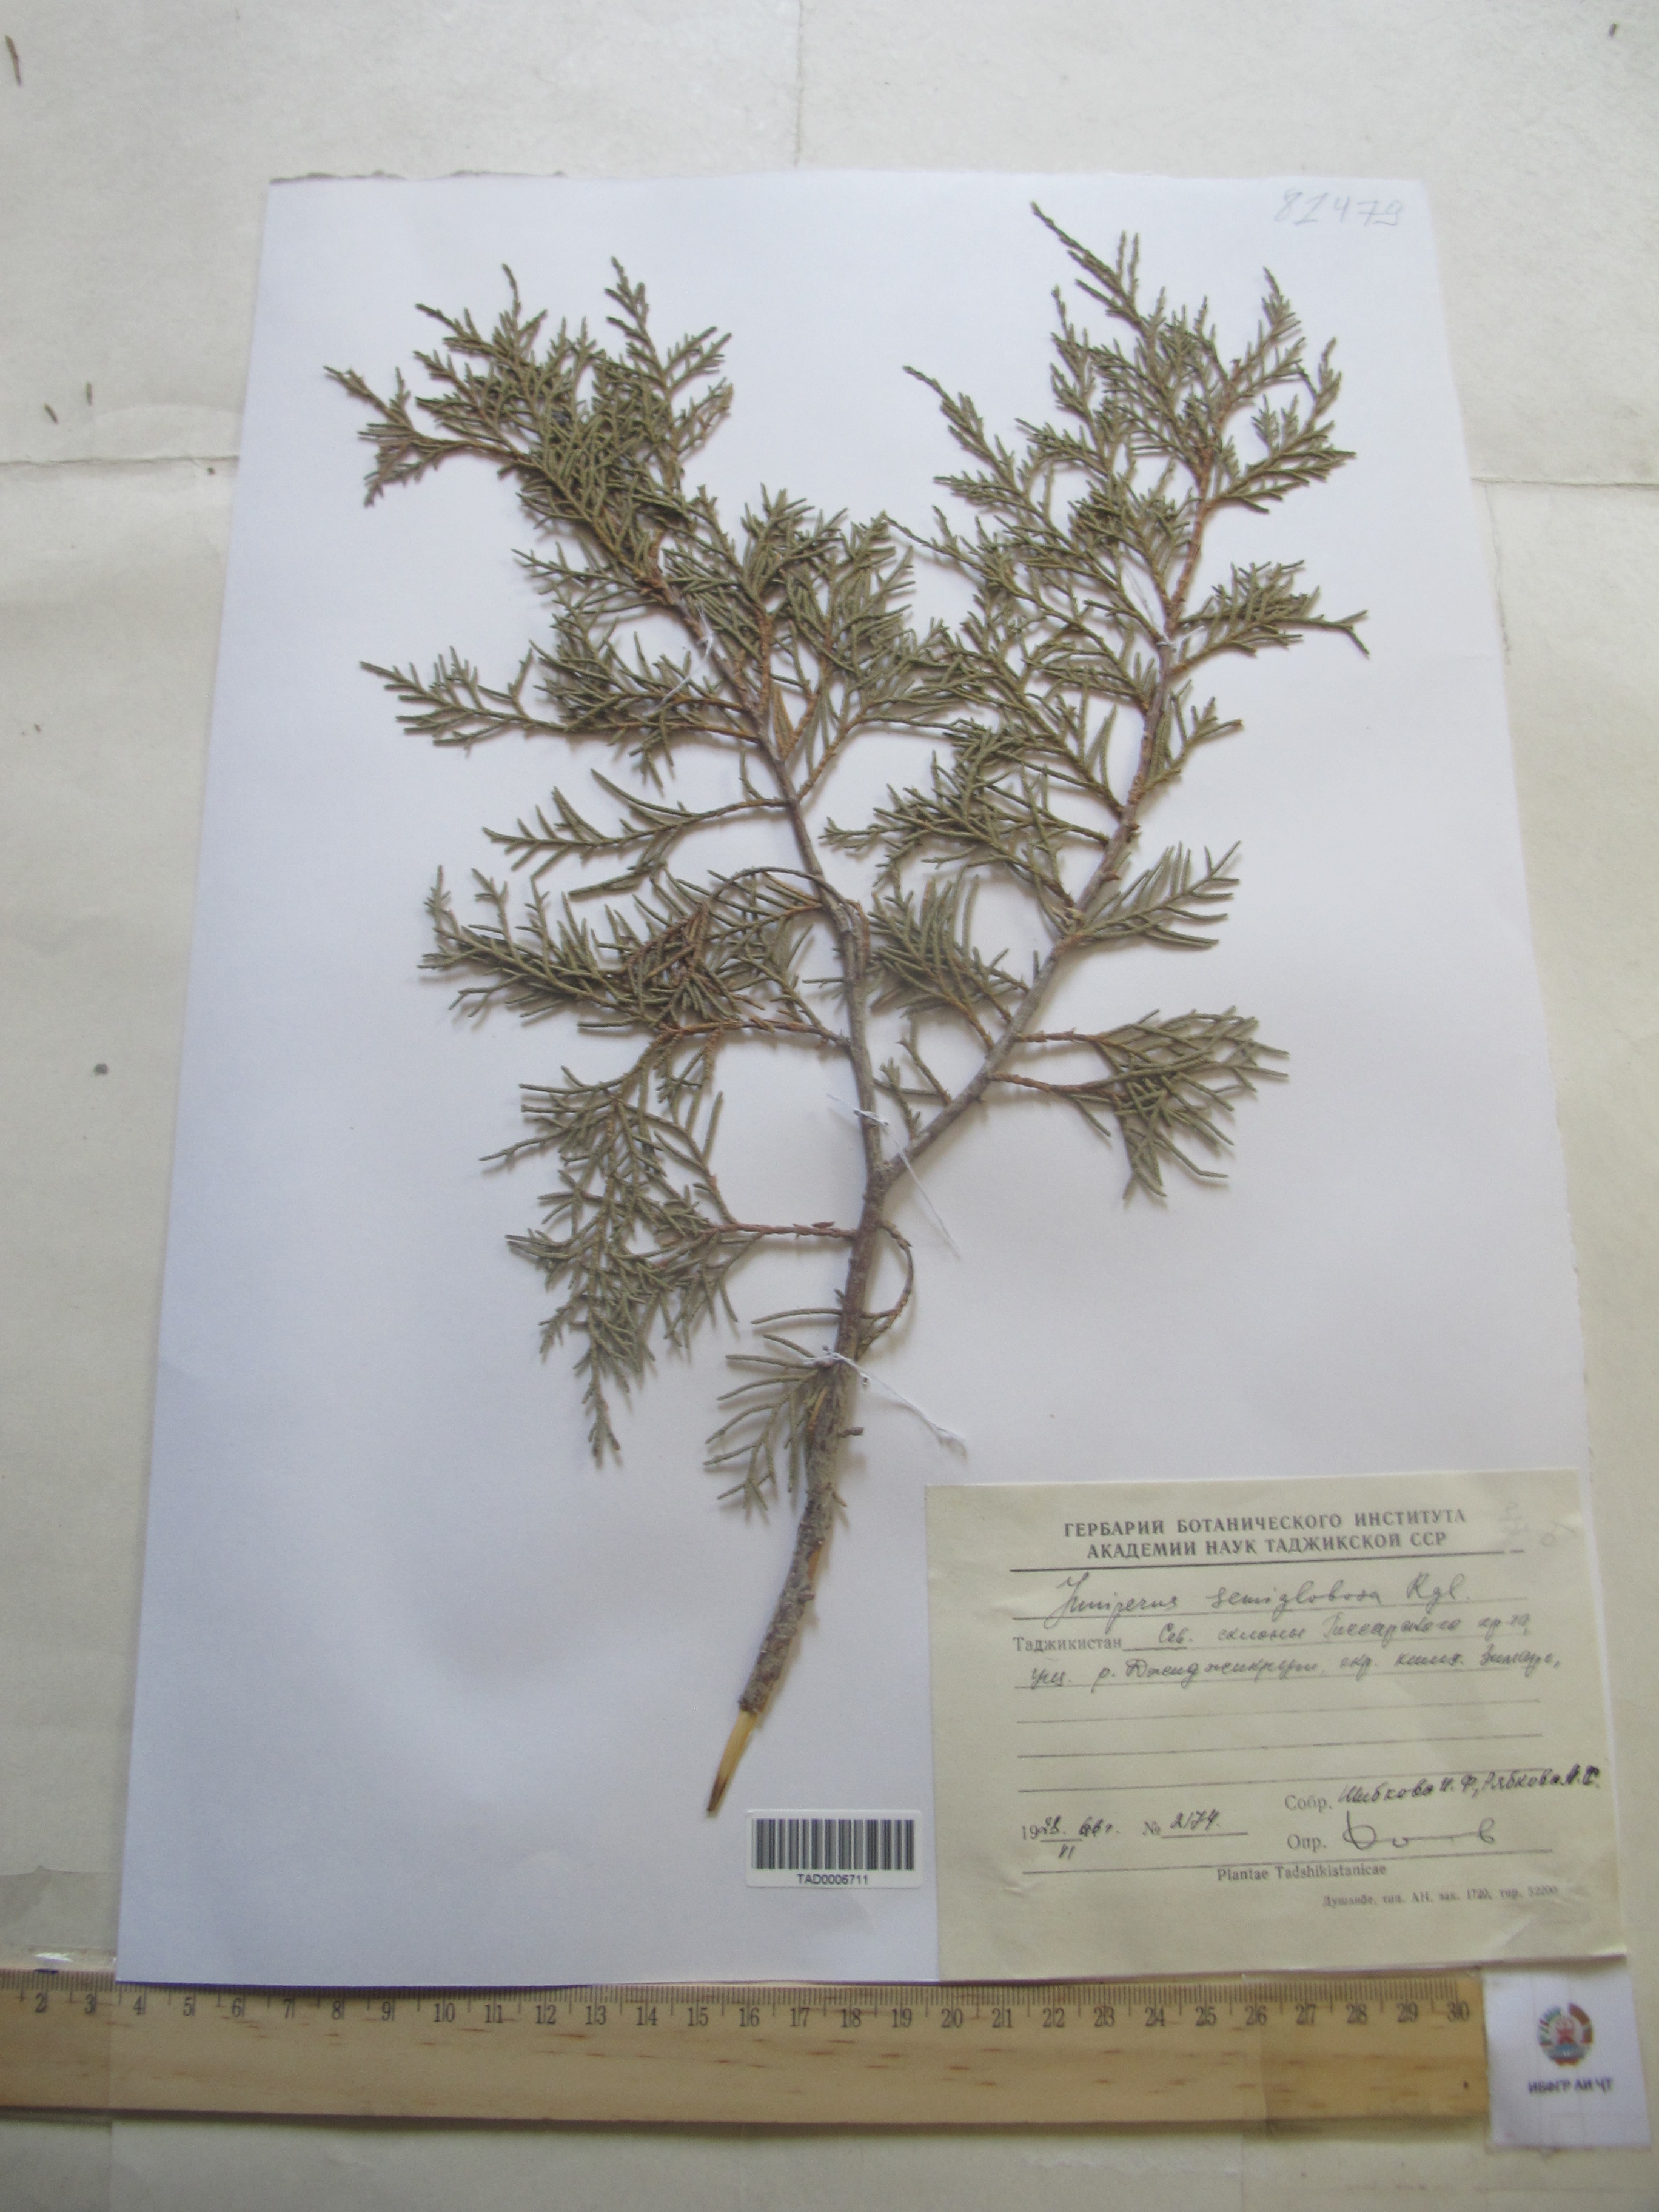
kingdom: Plantae
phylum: Tracheophyta
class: Pinopsida
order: Pinales
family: Cupressaceae
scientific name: Cupressaceae
